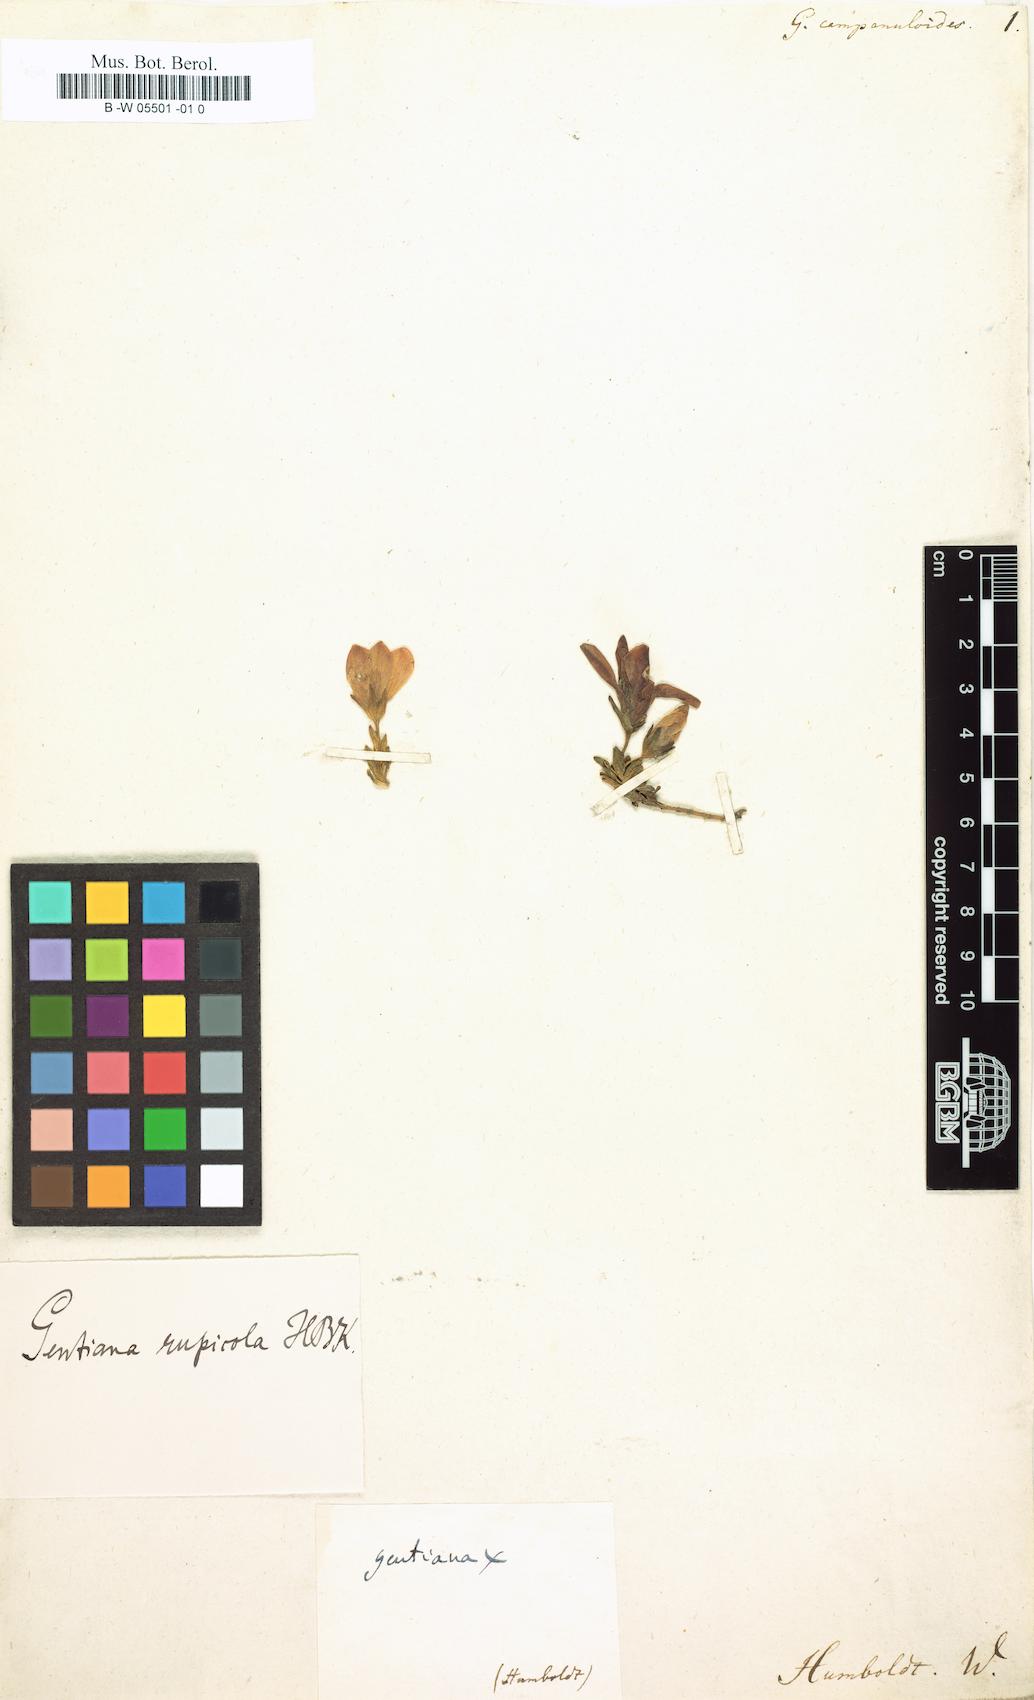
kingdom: Plantae
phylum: Tracheophyta
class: Magnoliopsida
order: Gentianales
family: Gentianaceae
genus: Gentianella
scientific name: Gentianella rupicola
